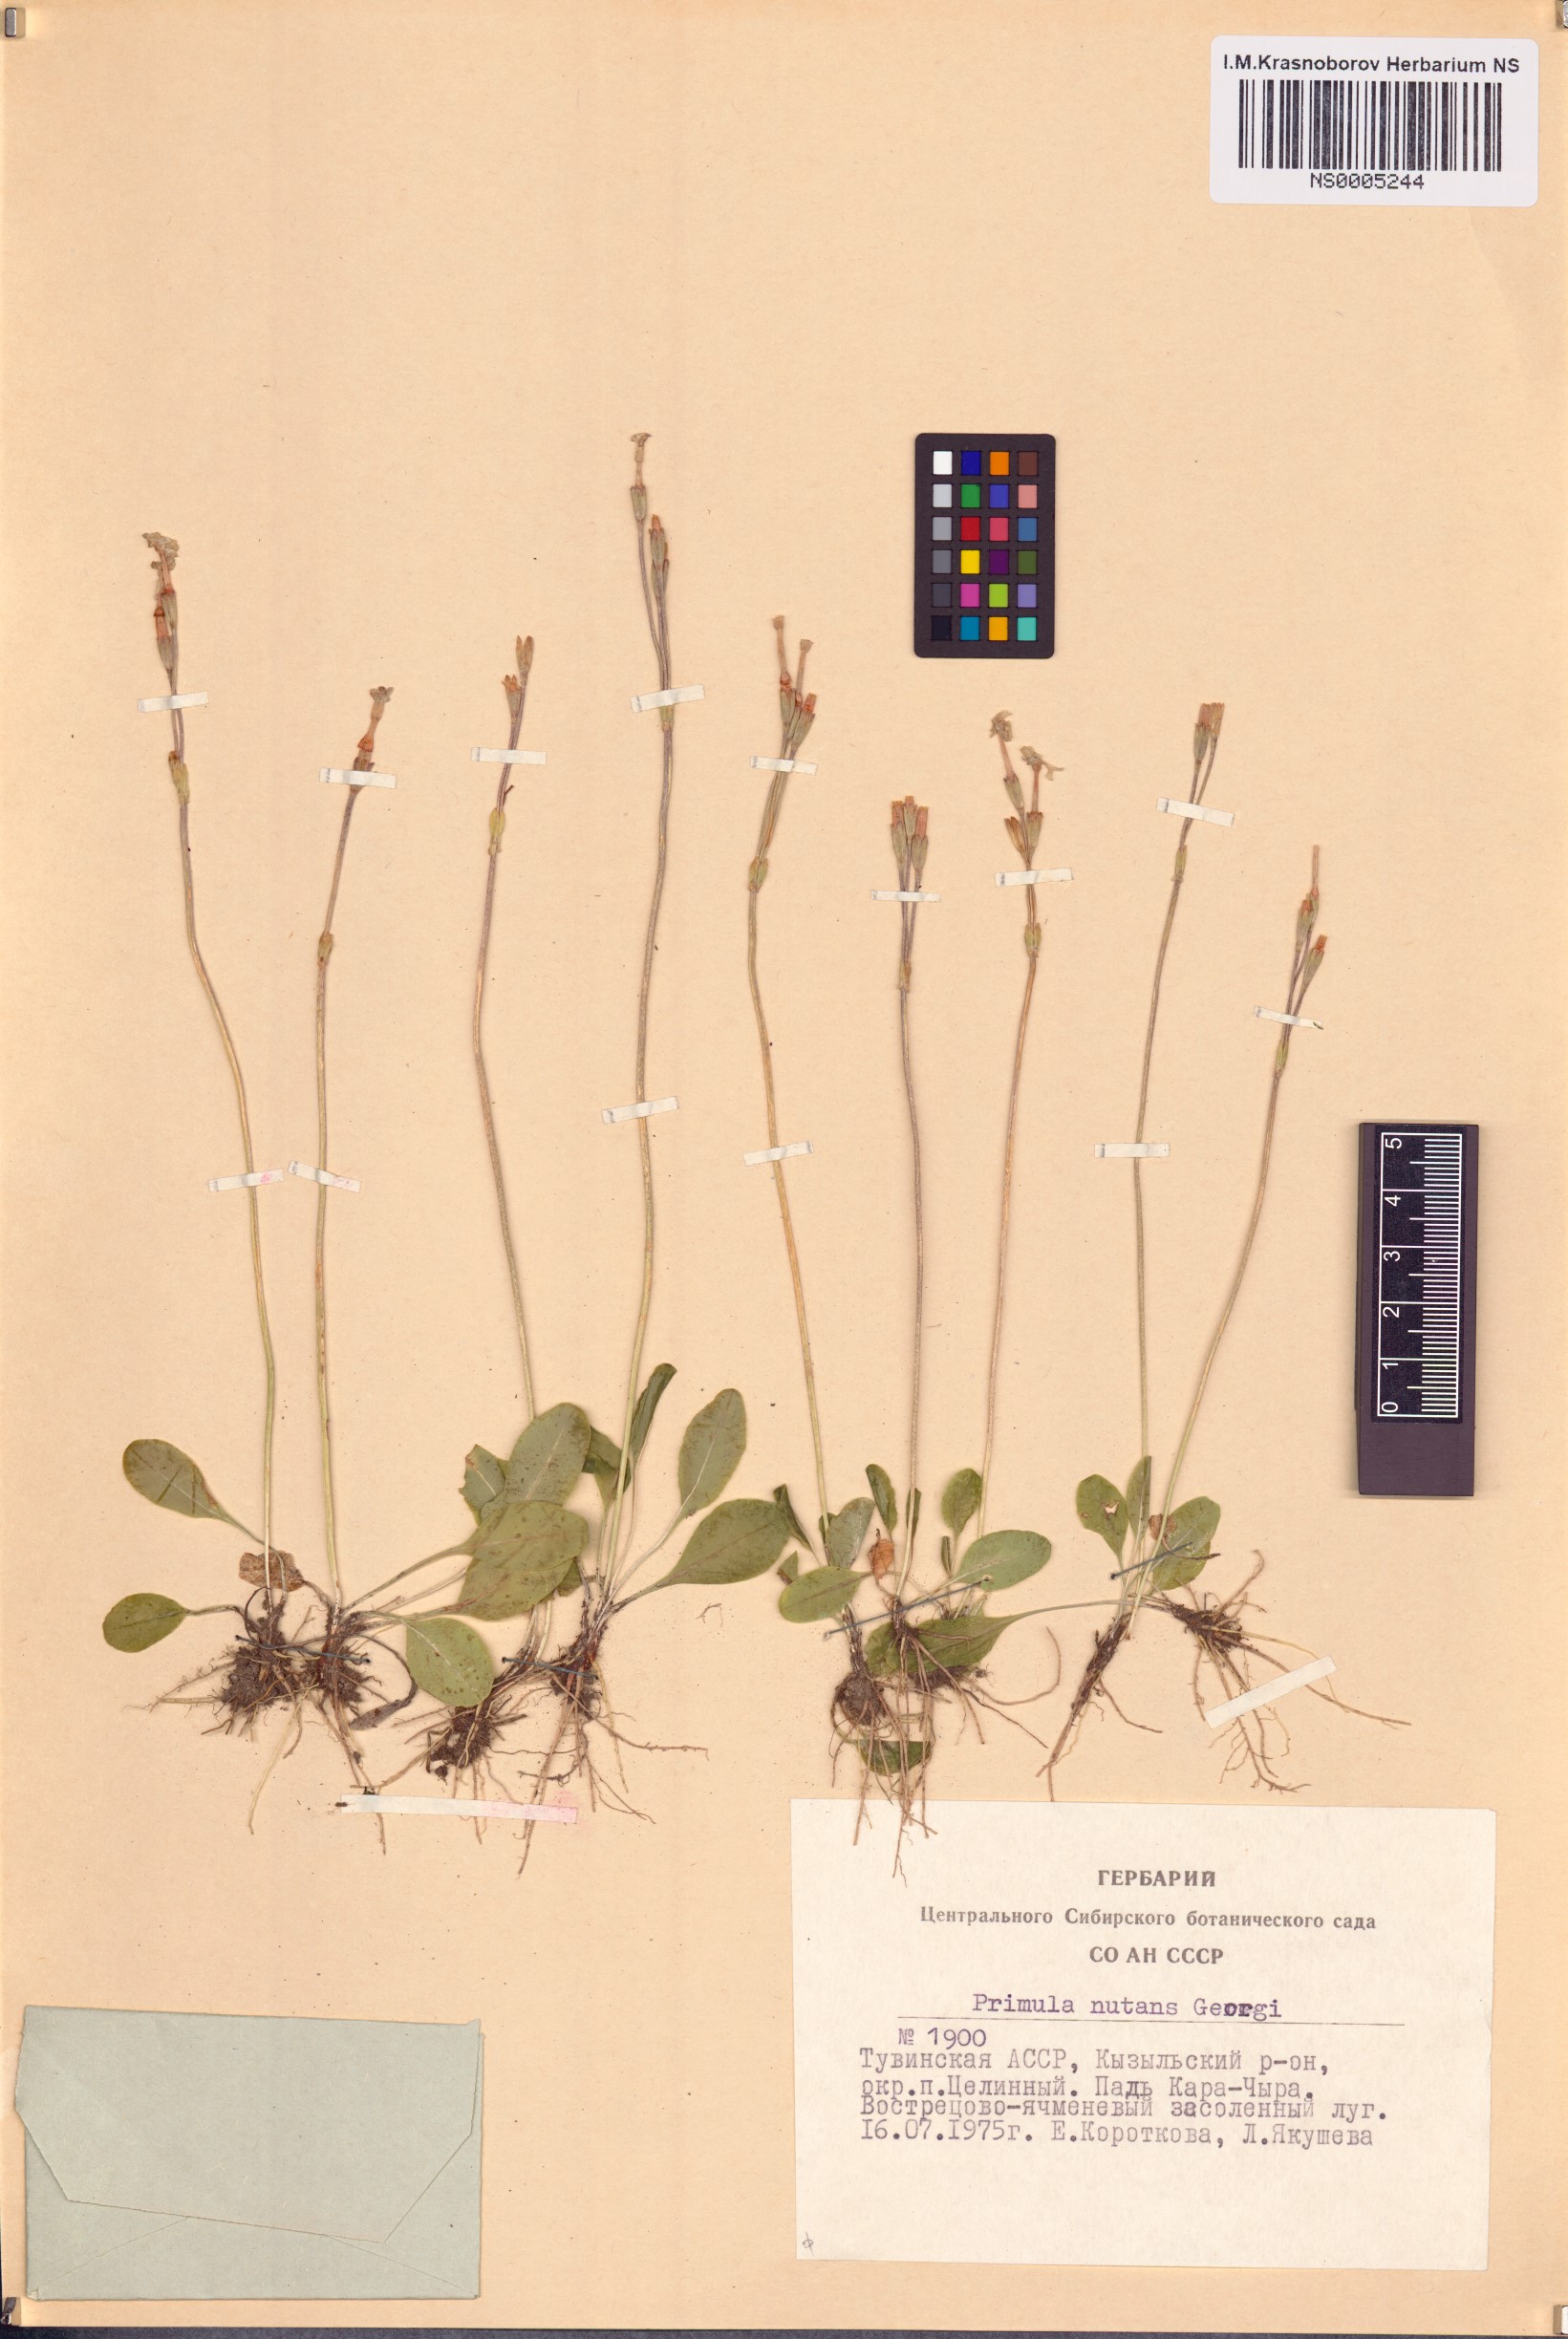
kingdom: Plantae
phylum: Tracheophyta
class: Magnoliopsida
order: Ericales
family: Primulaceae
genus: Primula
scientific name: Primula nutans
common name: Siberian primrose
